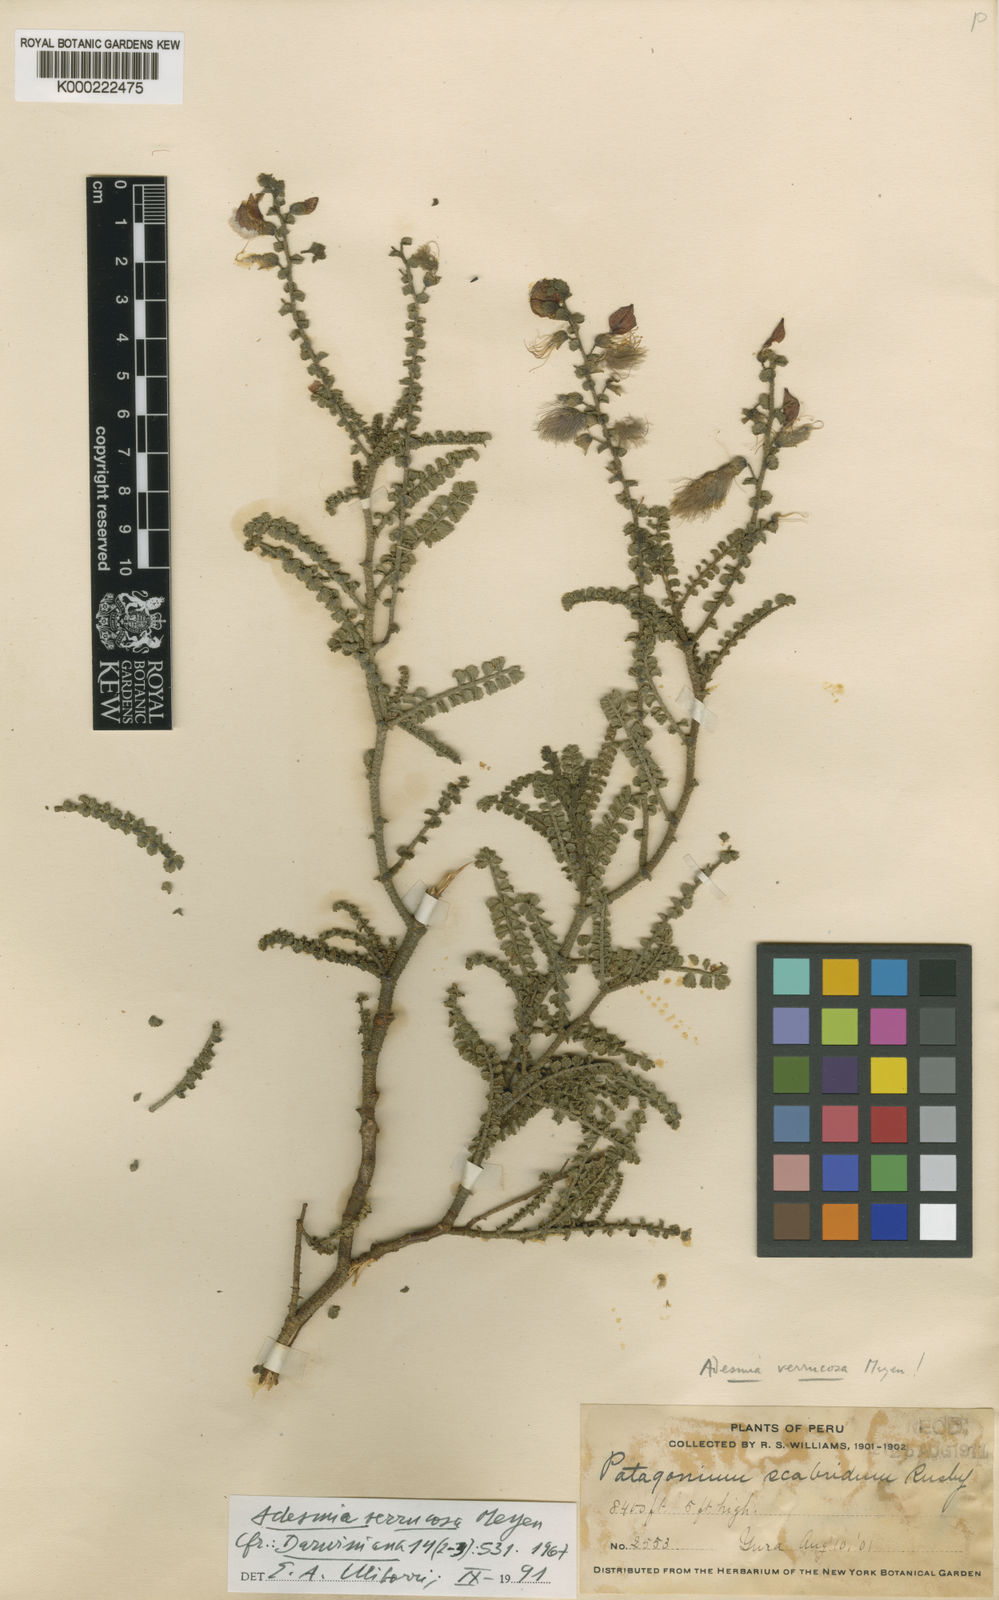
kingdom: Plantae
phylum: Tracheophyta
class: Magnoliopsida
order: Fabales
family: Fabaceae
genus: Adesmia
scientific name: Adesmia verrucosa
